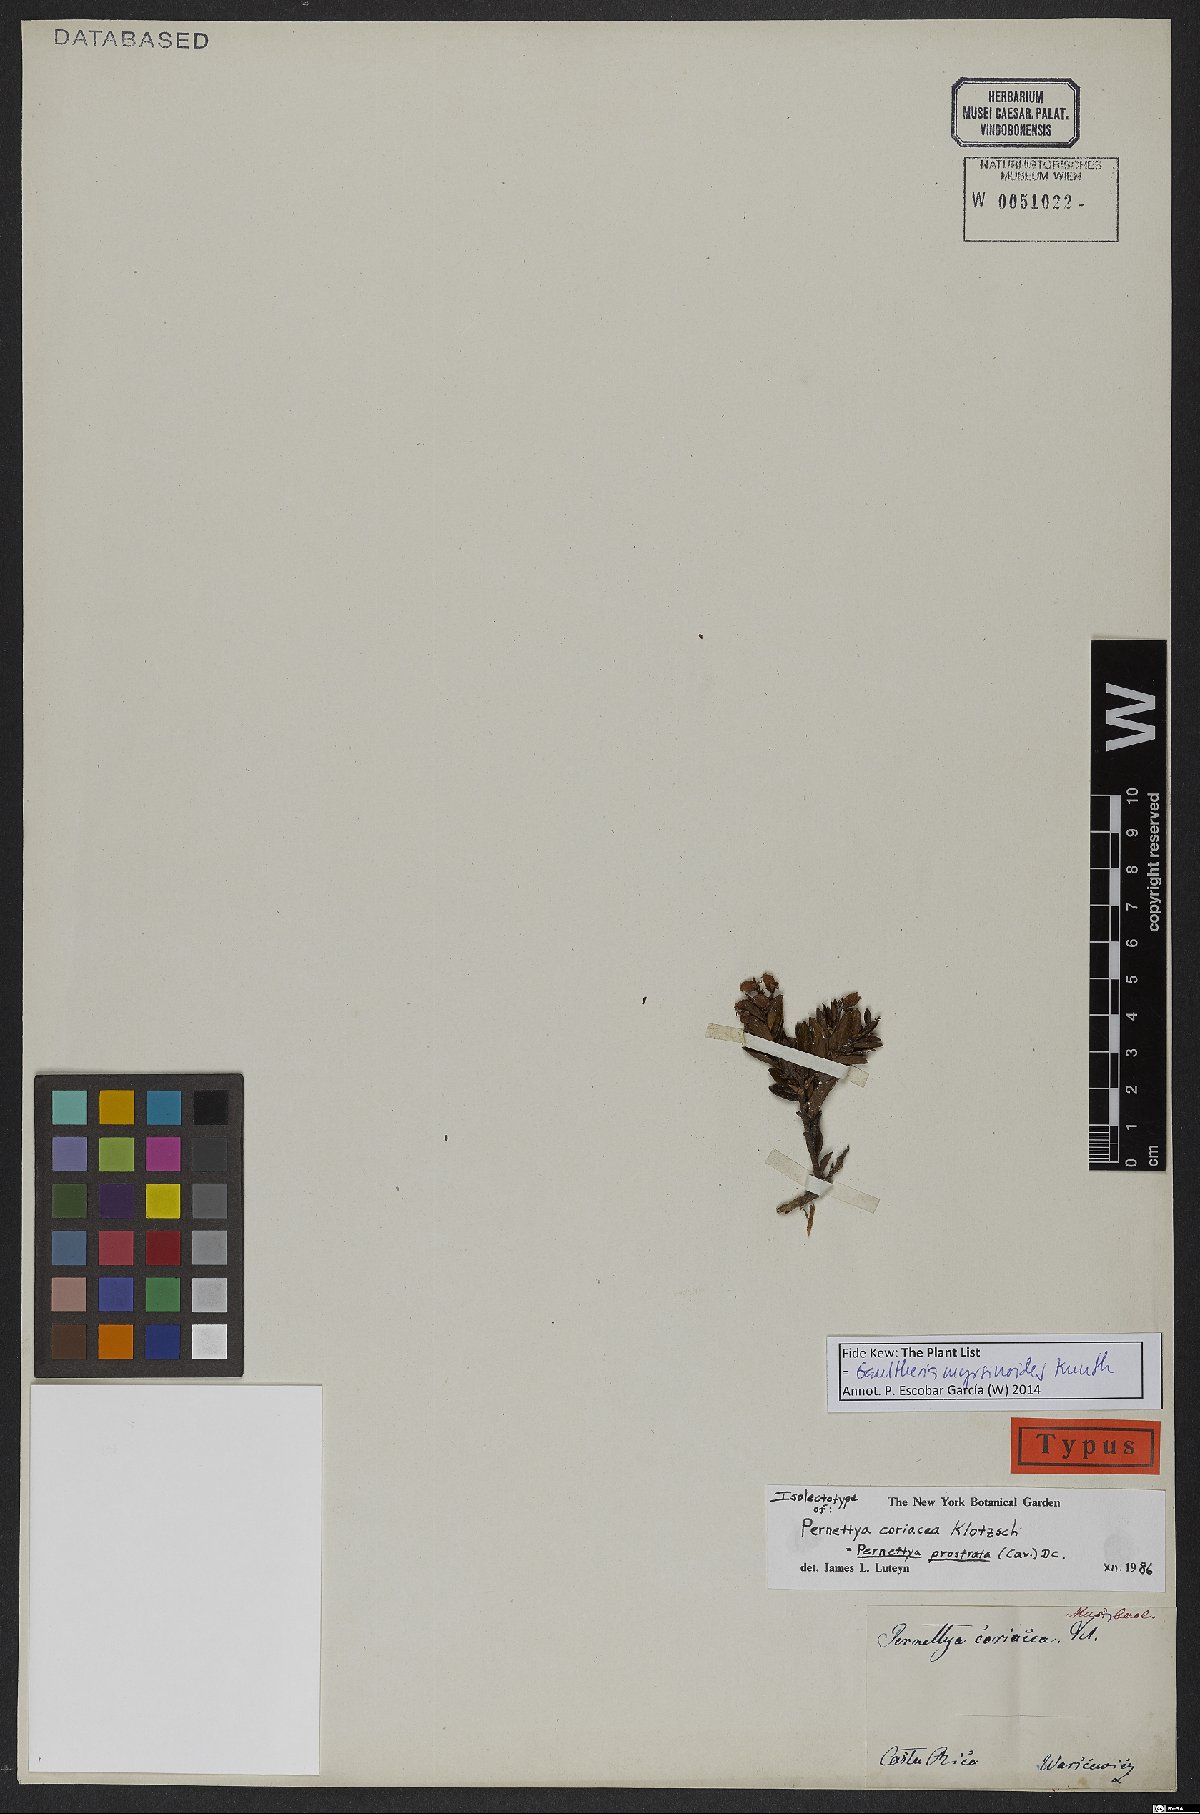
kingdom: Plantae
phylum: Tracheophyta
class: Magnoliopsida
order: Ericales
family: Ericaceae
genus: Gaultheria
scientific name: Gaultheria myrsinoides
